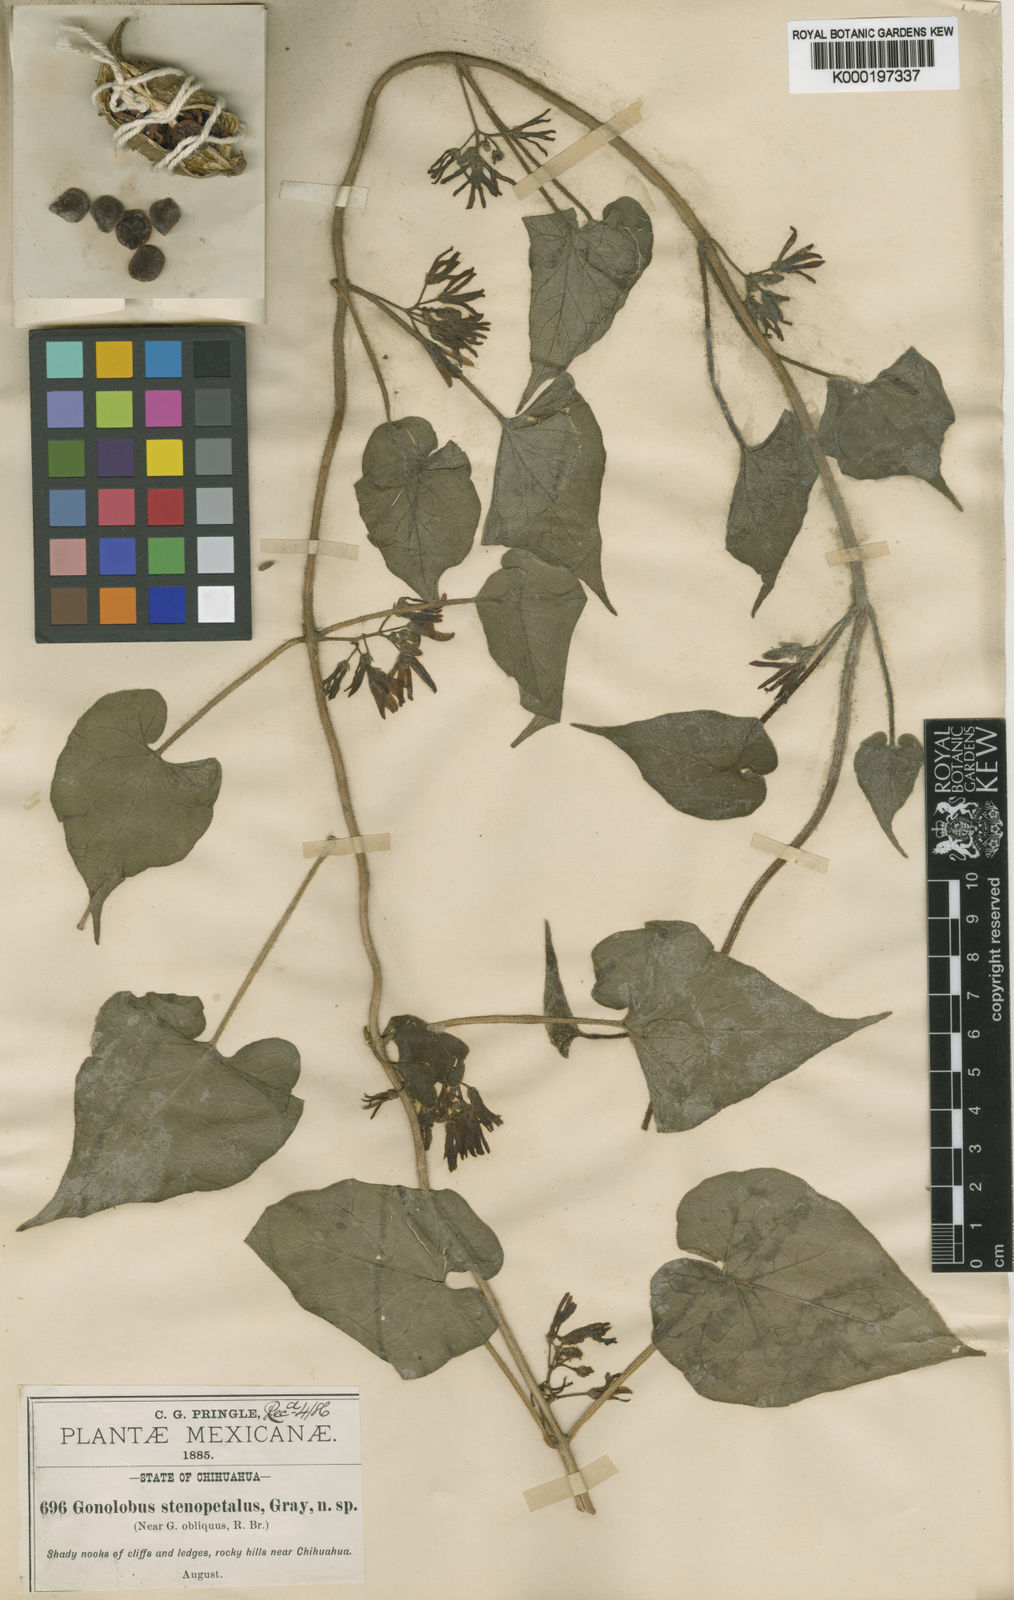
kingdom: Plantae
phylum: Tracheophyta
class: Magnoliopsida
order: Gentianales
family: Apocynaceae
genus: Matelea
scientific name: Matelea
